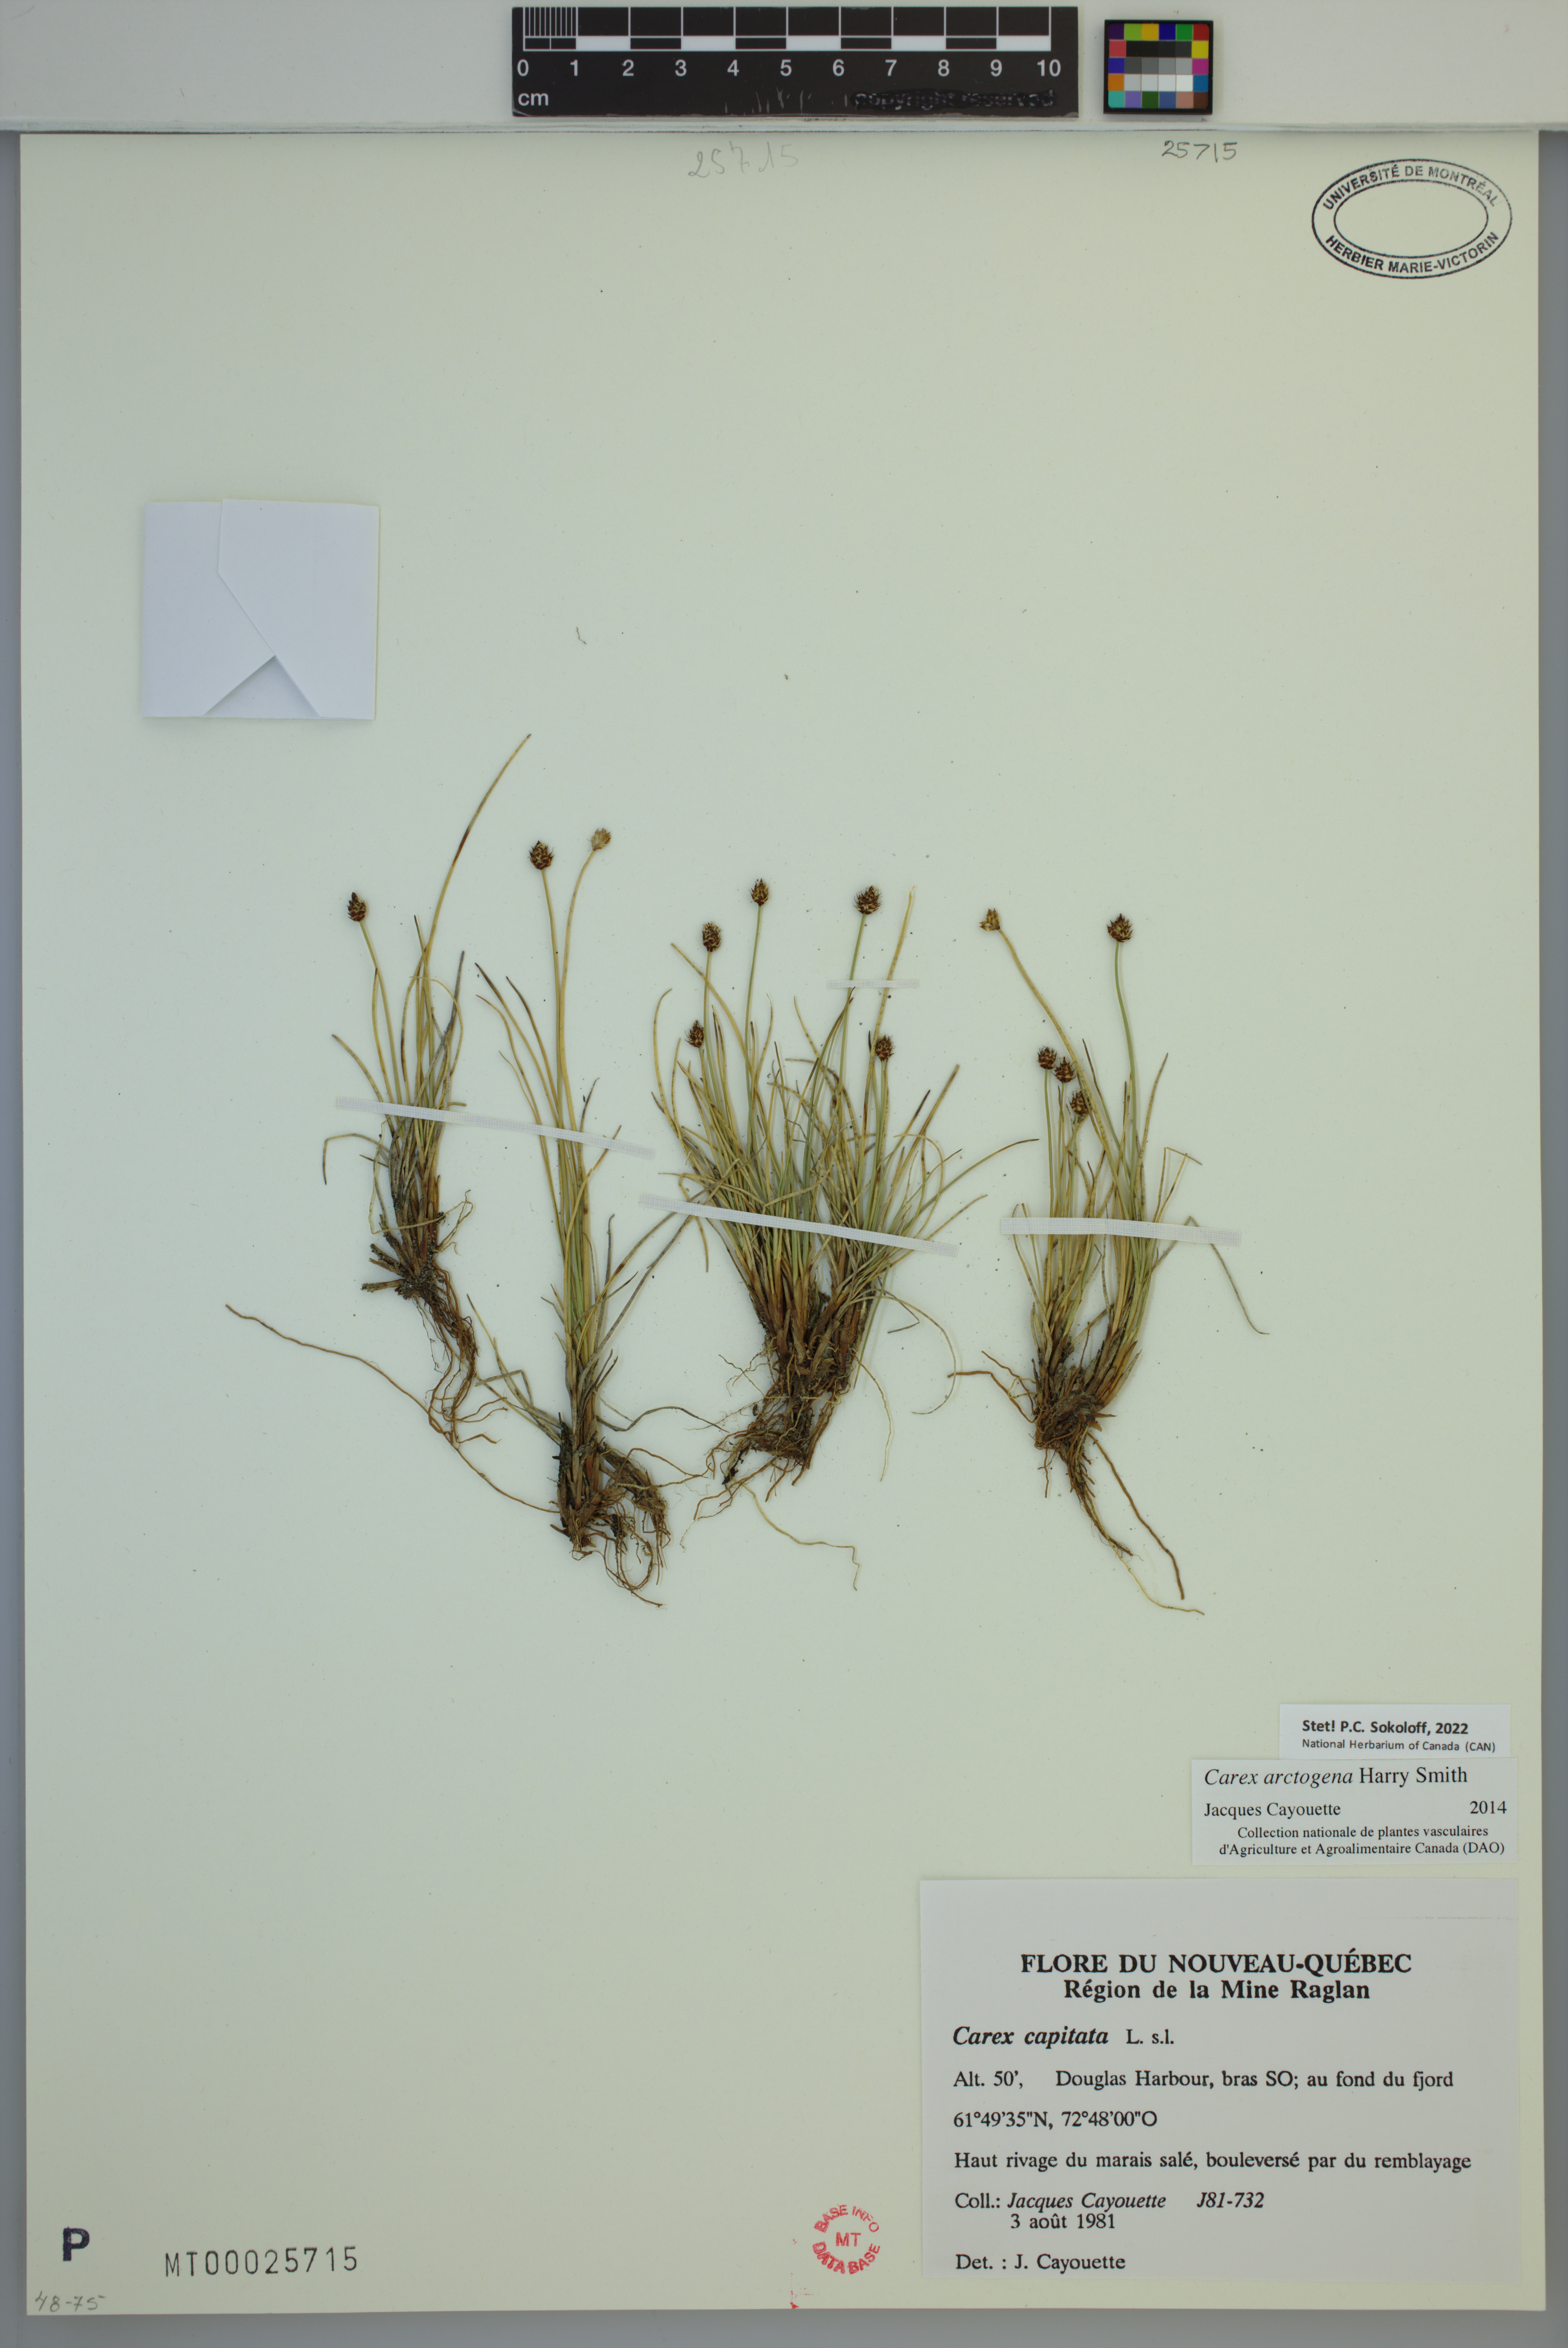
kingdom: Plantae
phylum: Tracheophyta
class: Liliopsida
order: Poales
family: Cyperaceae
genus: Carex
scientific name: Carex arctogena
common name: Black sedge
